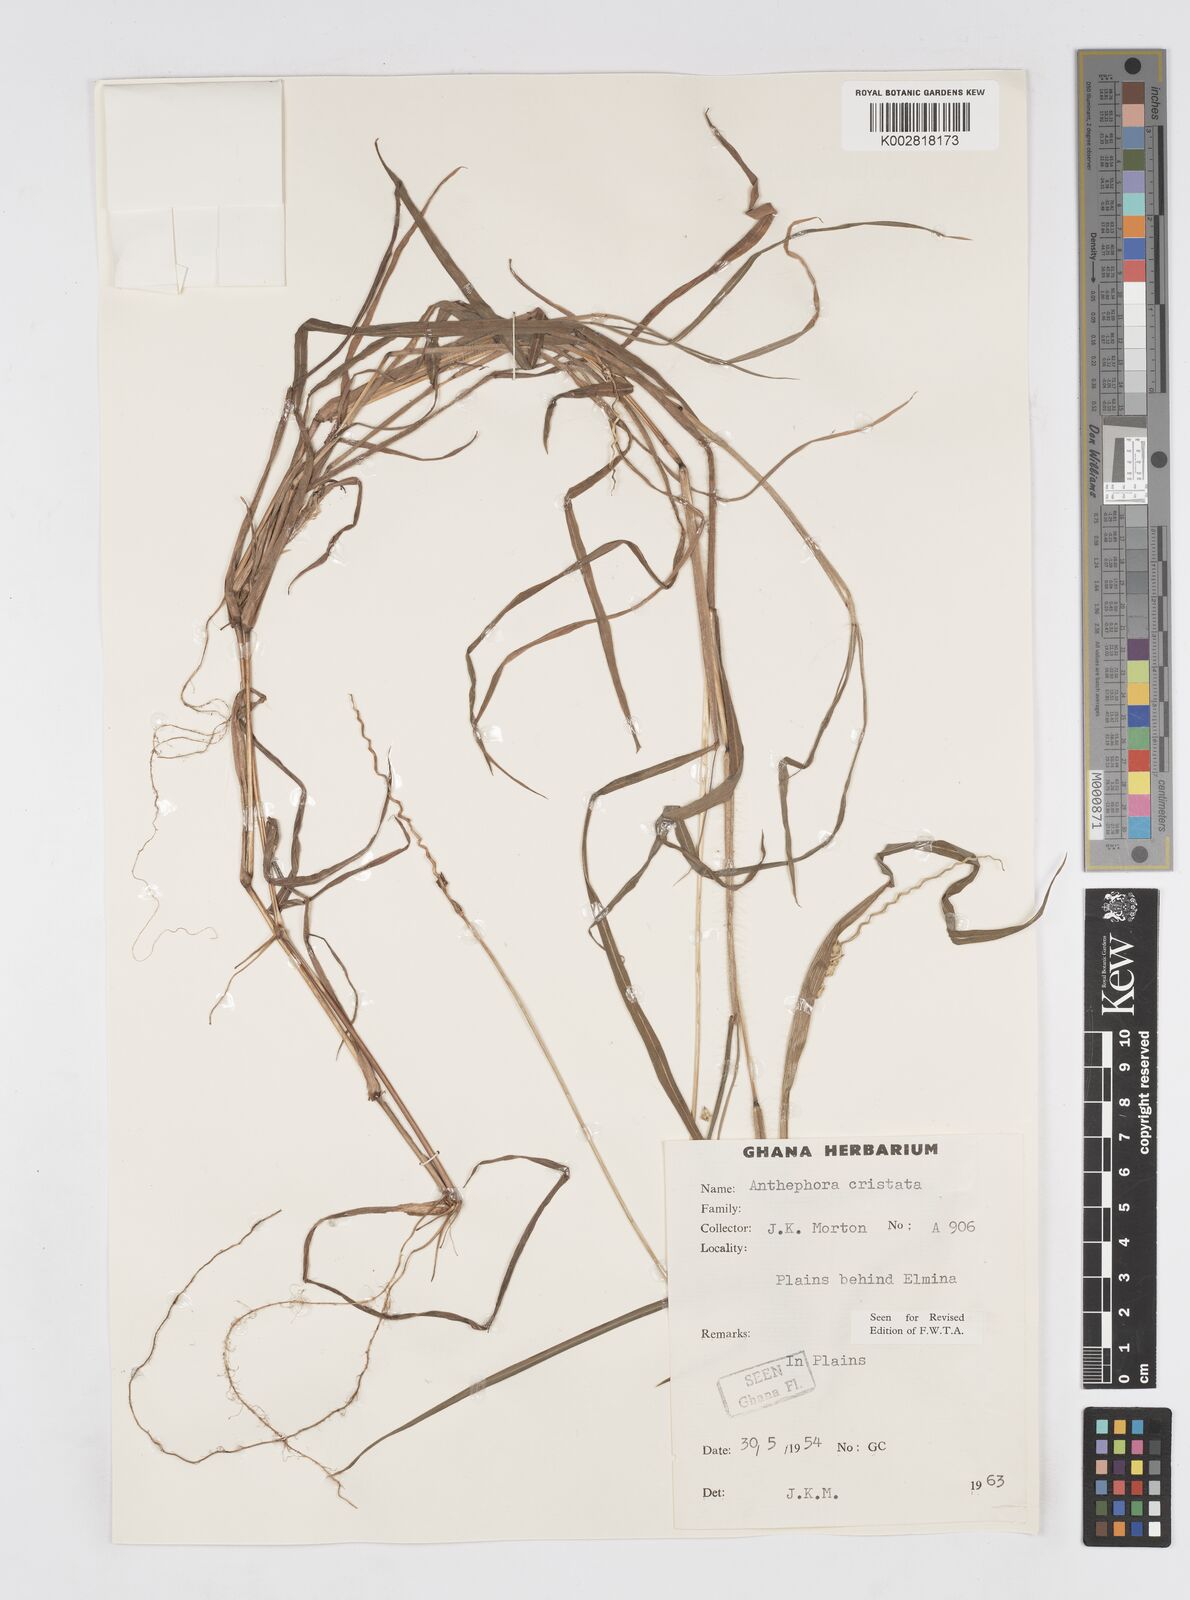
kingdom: Plantae
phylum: Tracheophyta
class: Liliopsida
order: Poales
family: Poaceae
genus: Anthephora
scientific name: Anthephora cristata
